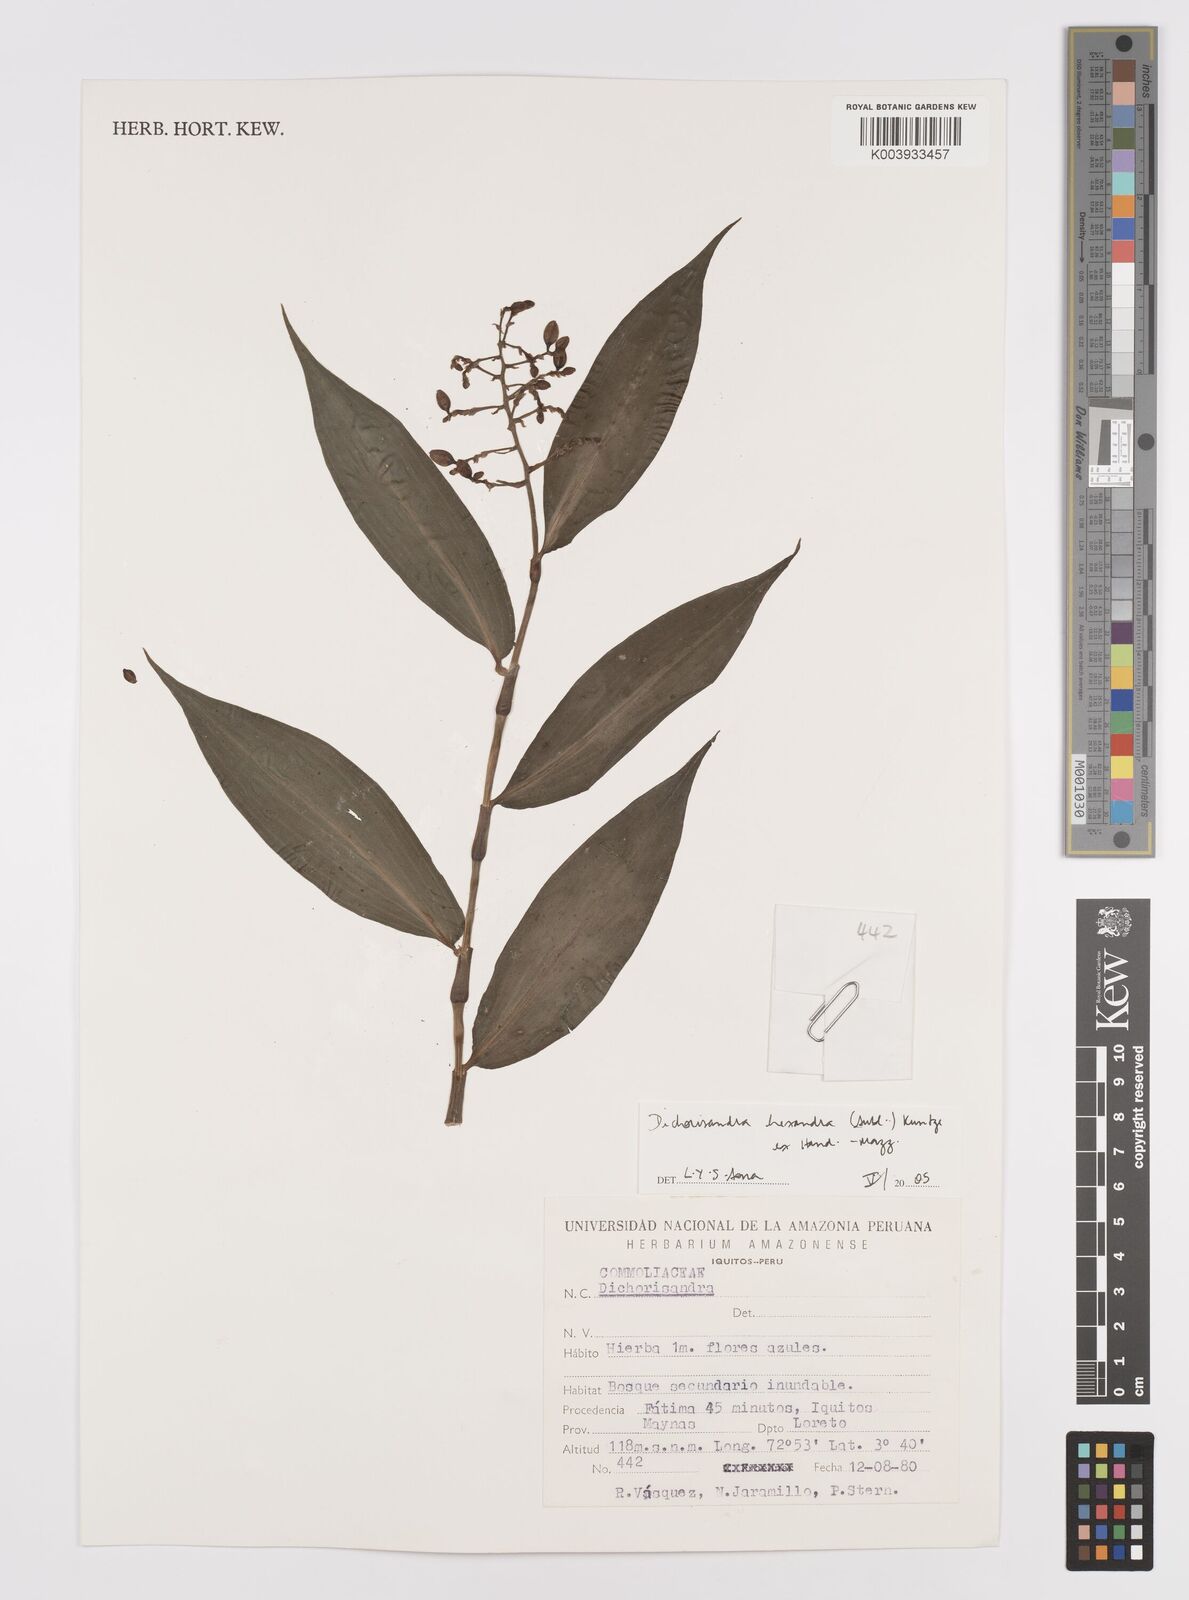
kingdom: Plantae
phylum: Tracheophyta
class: Liliopsida
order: Commelinales
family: Commelinaceae
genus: Dichorisandra
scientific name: Dichorisandra hexandra
